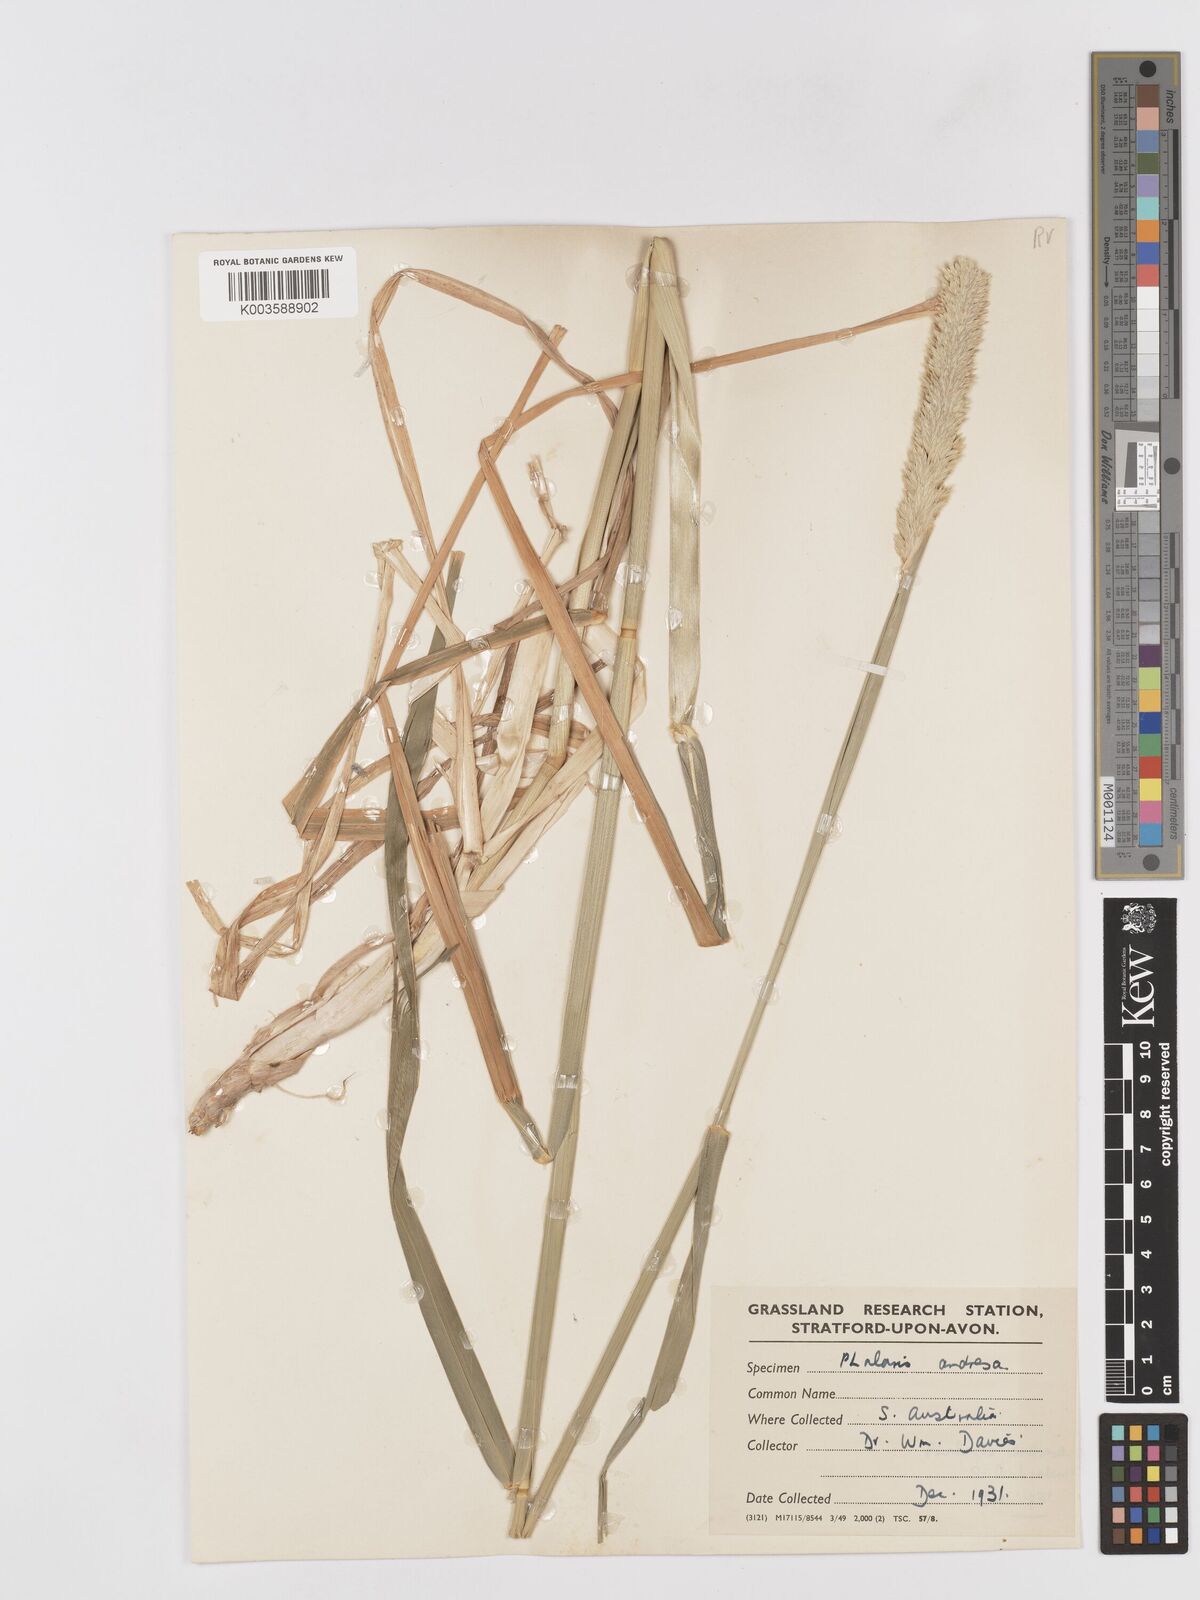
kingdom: Plantae
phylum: Tracheophyta
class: Liliopsida
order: Poales
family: Poaceae
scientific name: Poaceae
